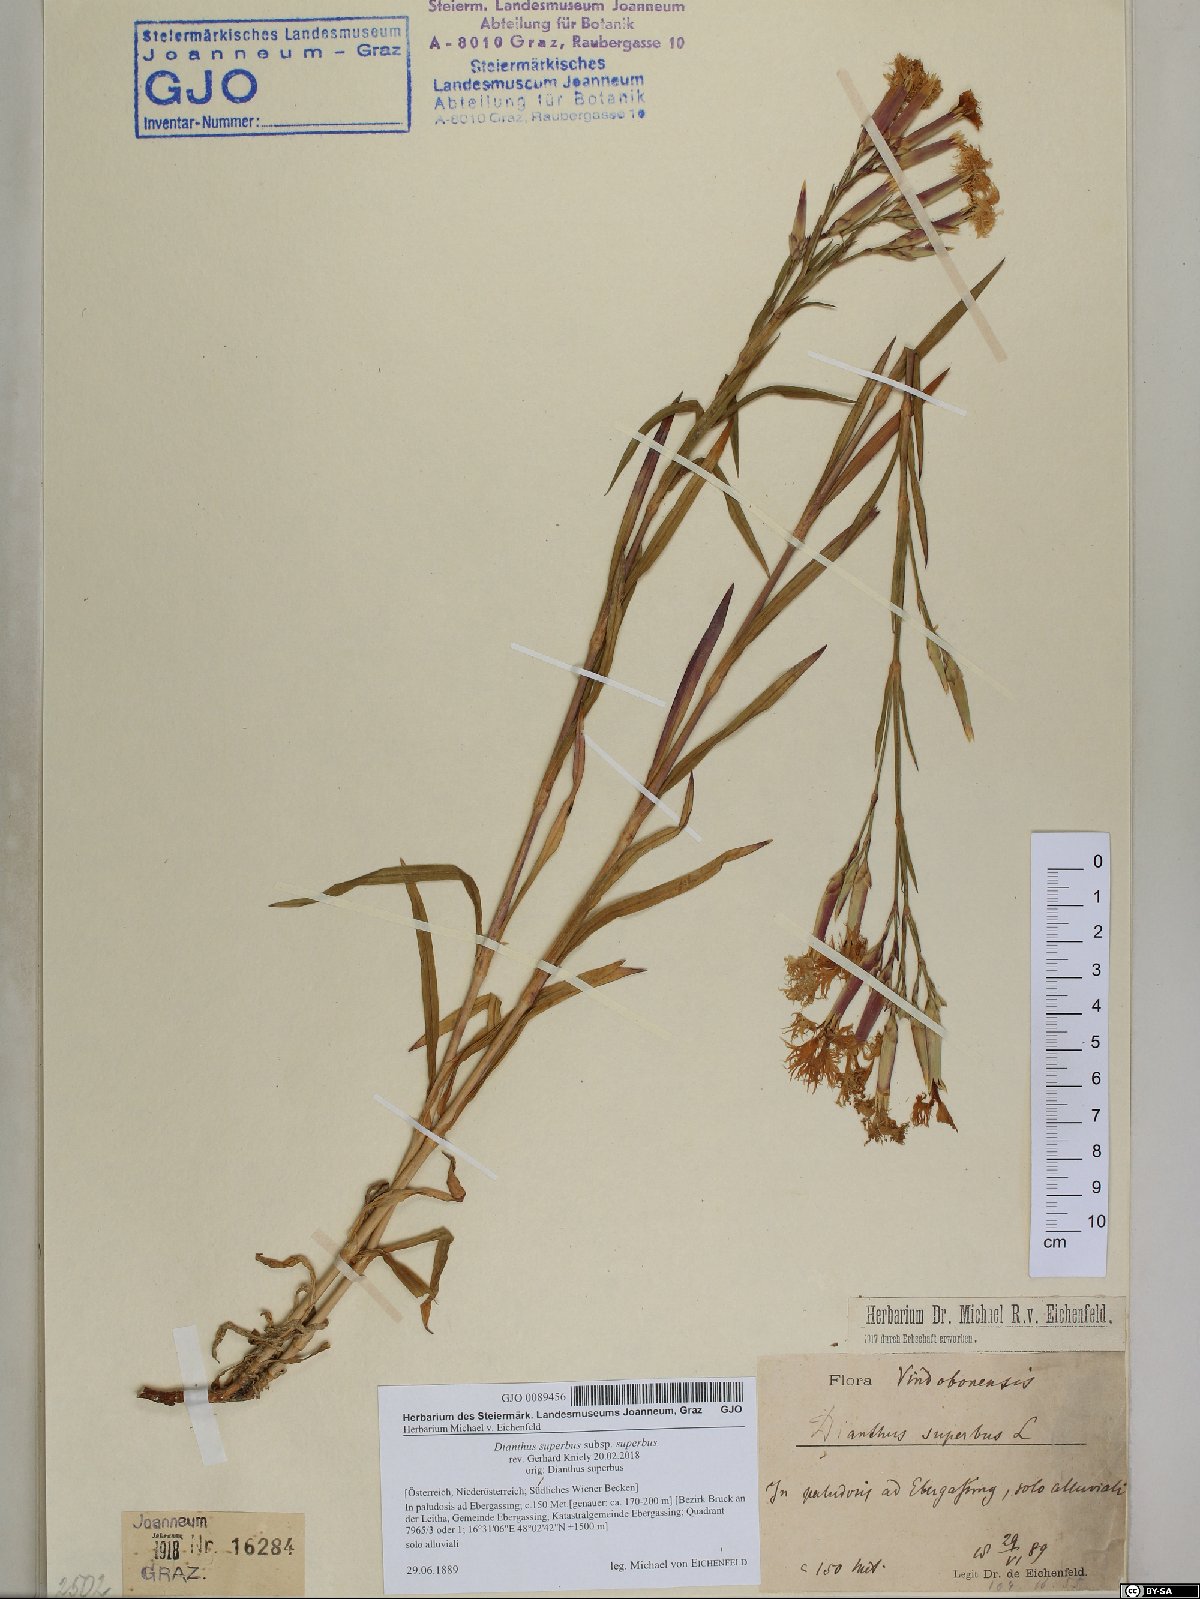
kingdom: Plantae
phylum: Tracheophyta
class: Magnoliopsida
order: Caryophyllales
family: Caryophyllaceae
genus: Dianthus
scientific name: Dianthus superbus
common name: Fringed pink
